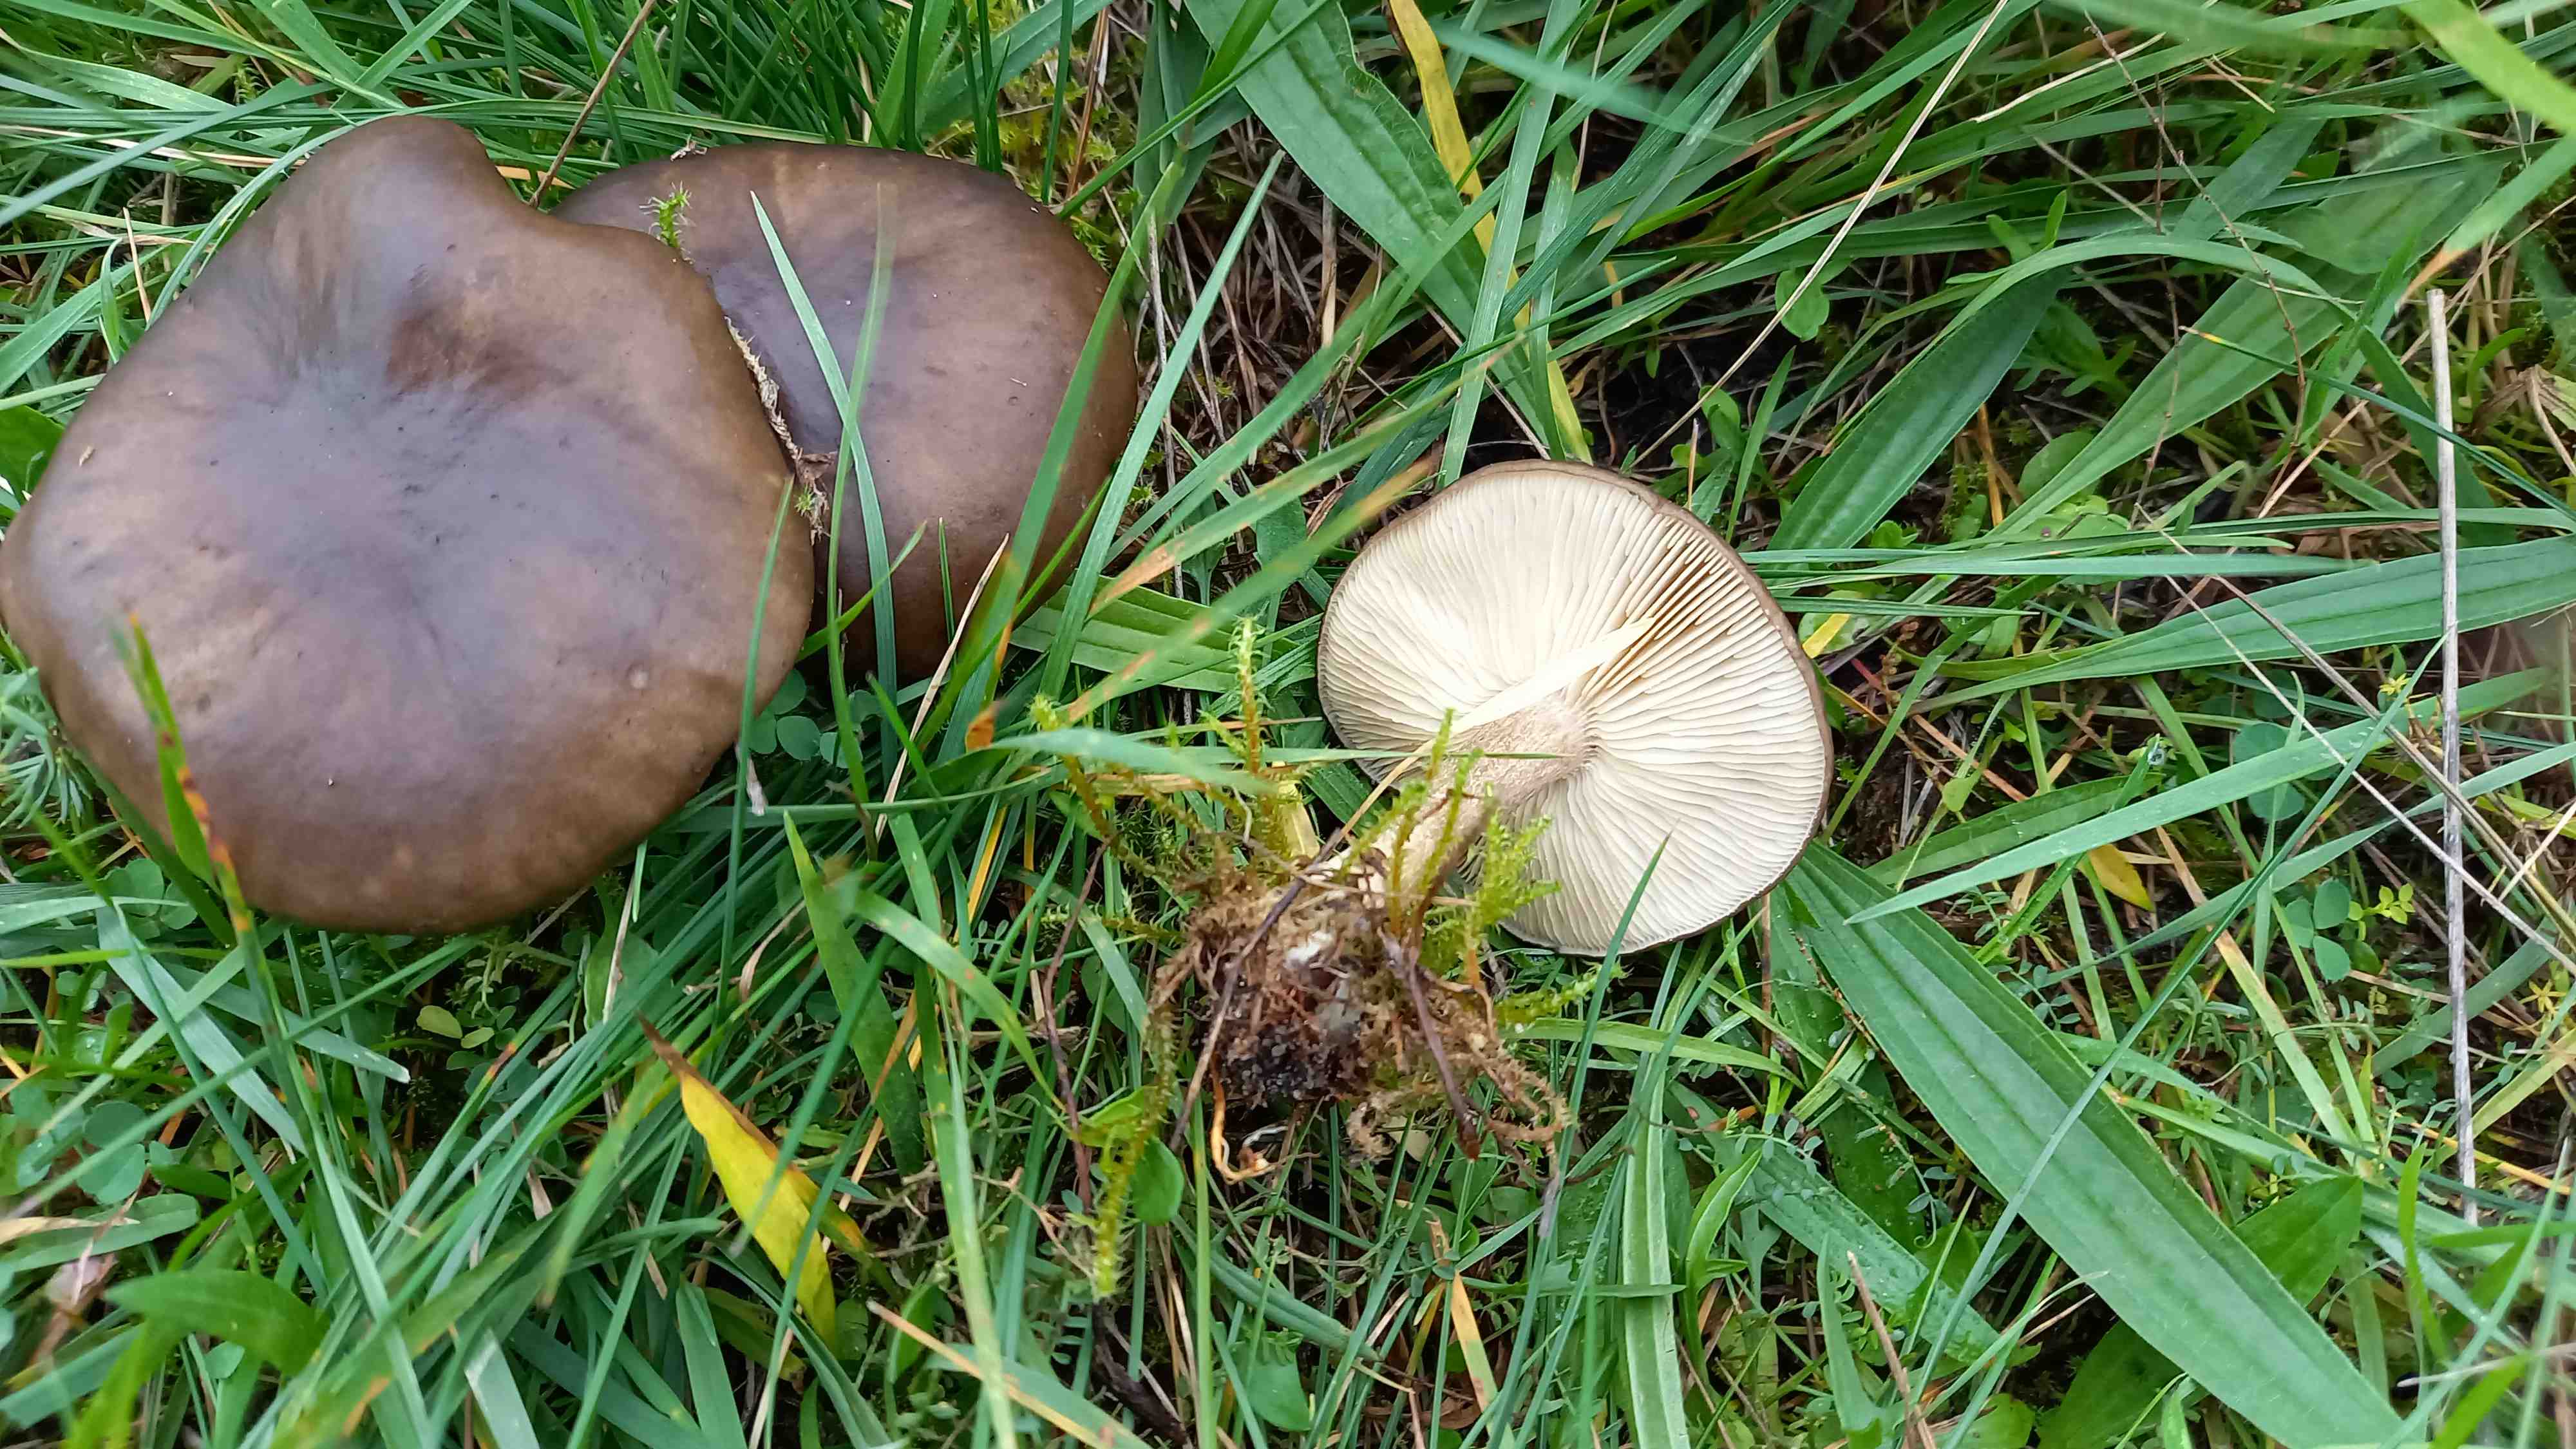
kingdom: Fungi
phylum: Basidiomycota
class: Agaricomycetes
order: Agaricales
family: Tricholomataceae
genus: Melanoleuca
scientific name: Melanoleuca
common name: munkehat
